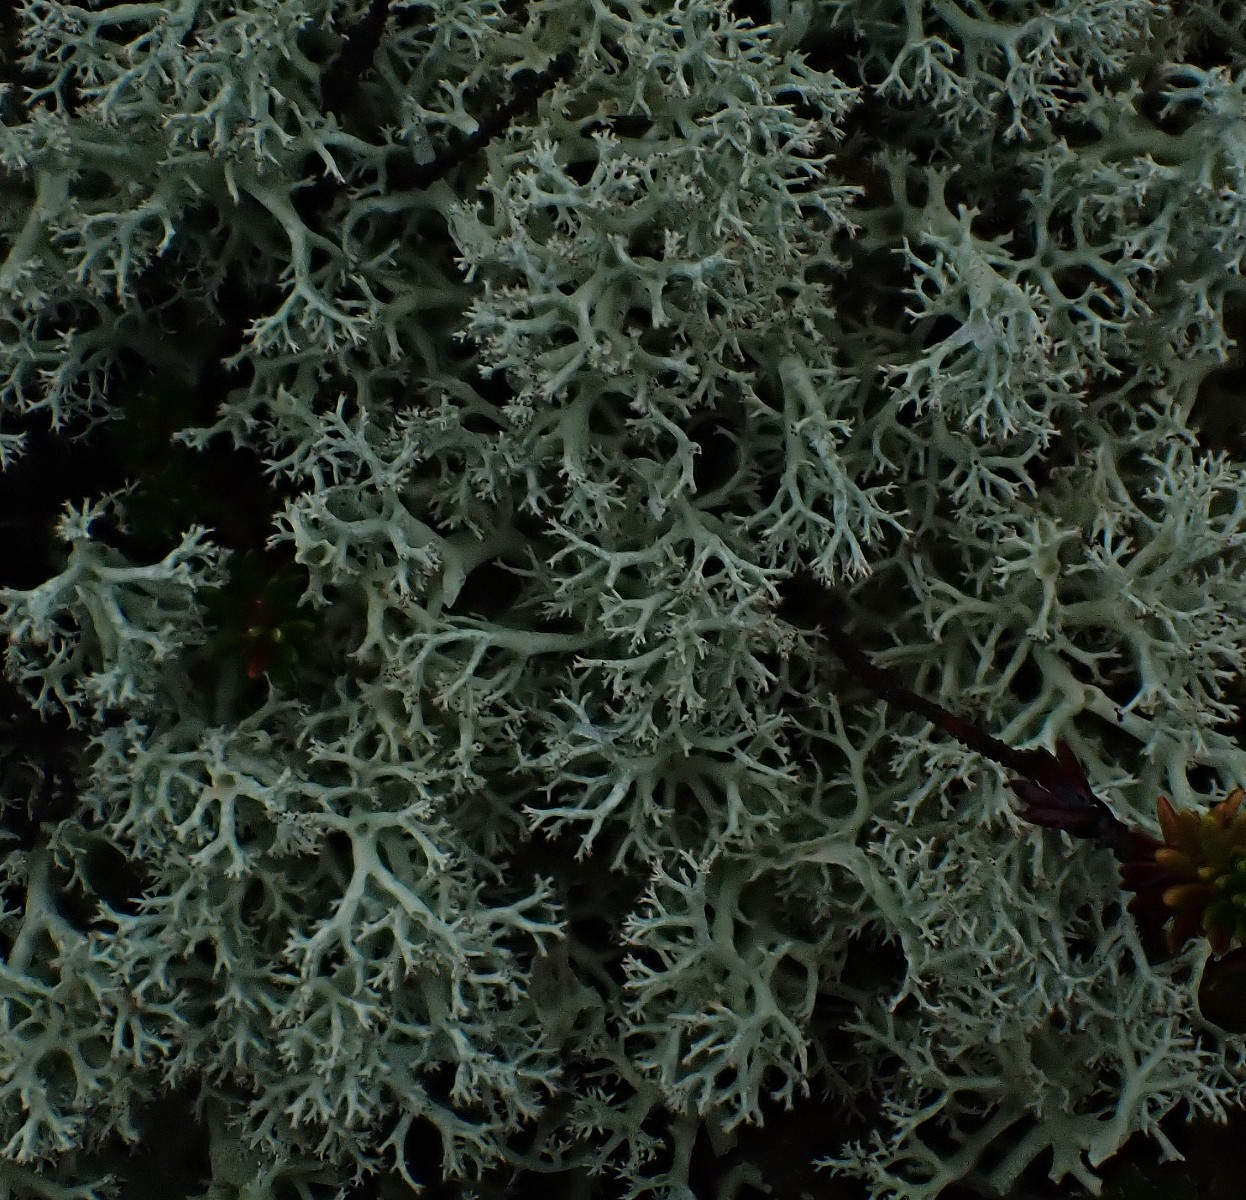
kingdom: Fungi
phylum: Ascomycota
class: Lecanoromycetes
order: Lecanorales
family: Cladoniaceae
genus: Cladonia
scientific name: Cladonia portentosa
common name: hede-rensdyrlav
